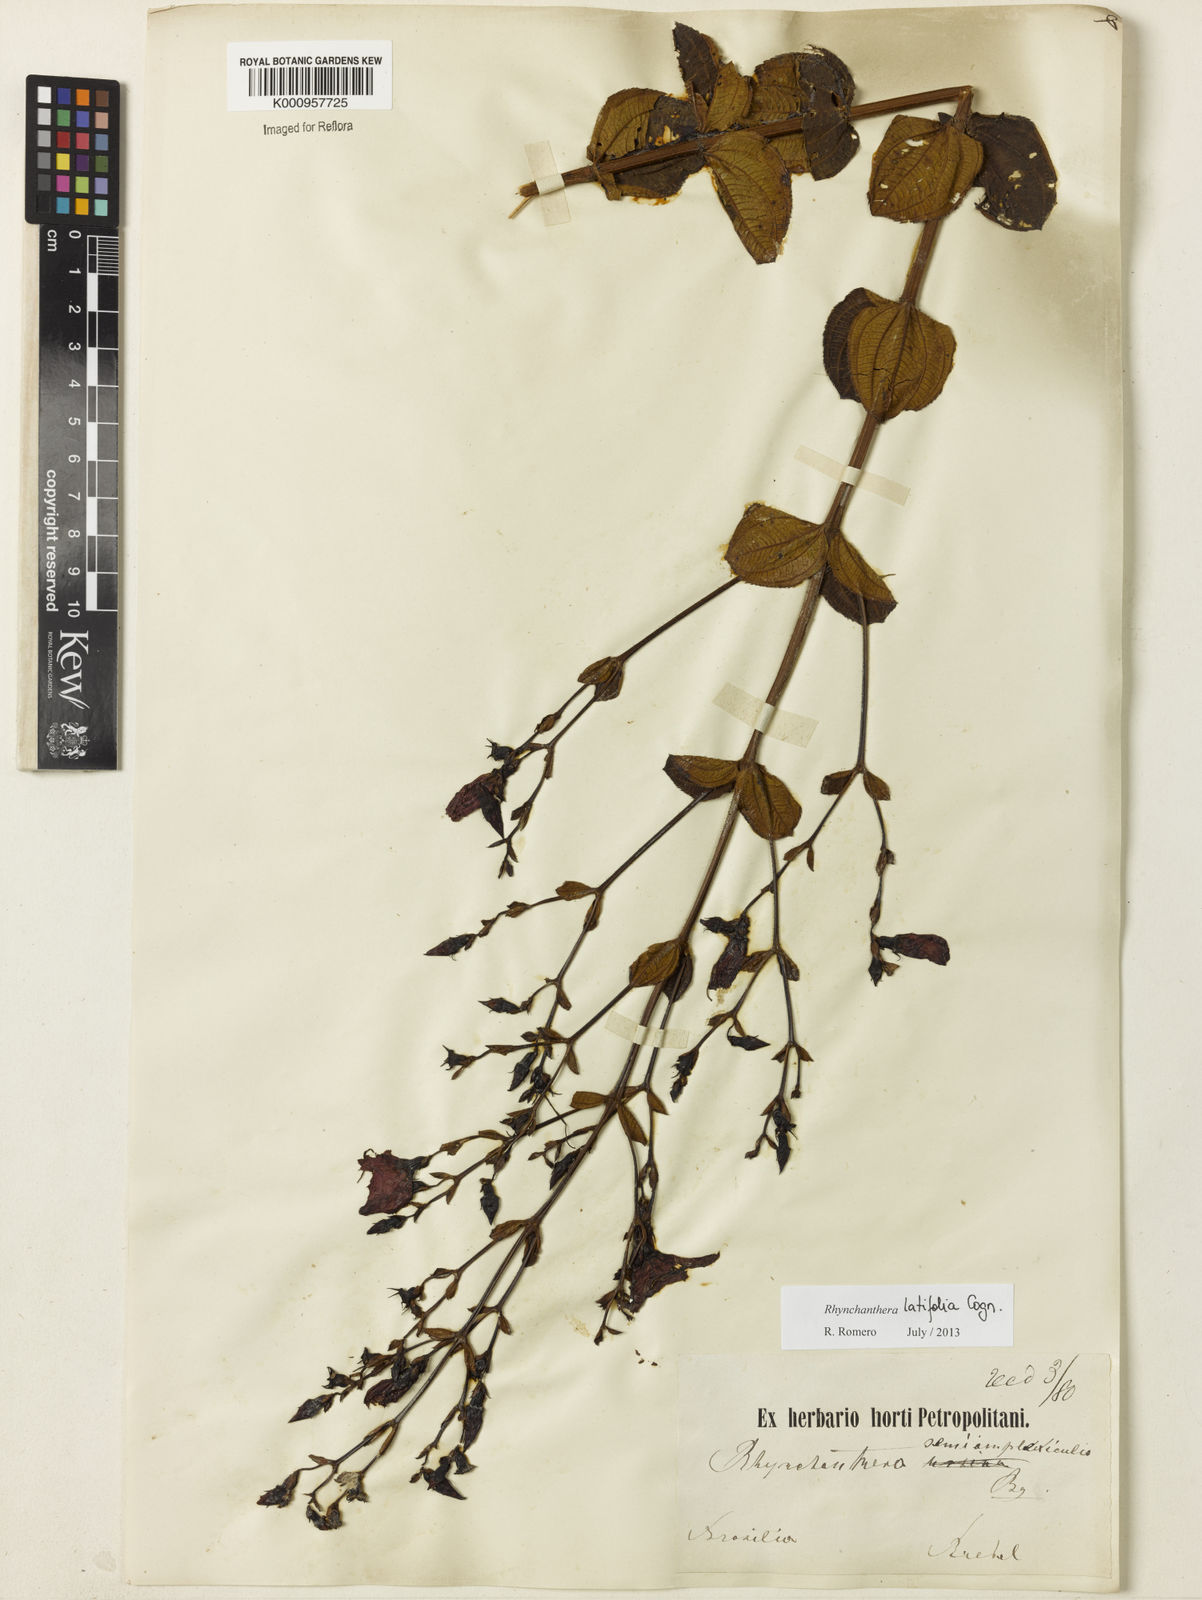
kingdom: Plantae
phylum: Tracheophyta
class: Magnoliopsida
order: Myrtales
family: Melastomataceae
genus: Rhynchanthera
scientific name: Rhynchanthera latifolia
